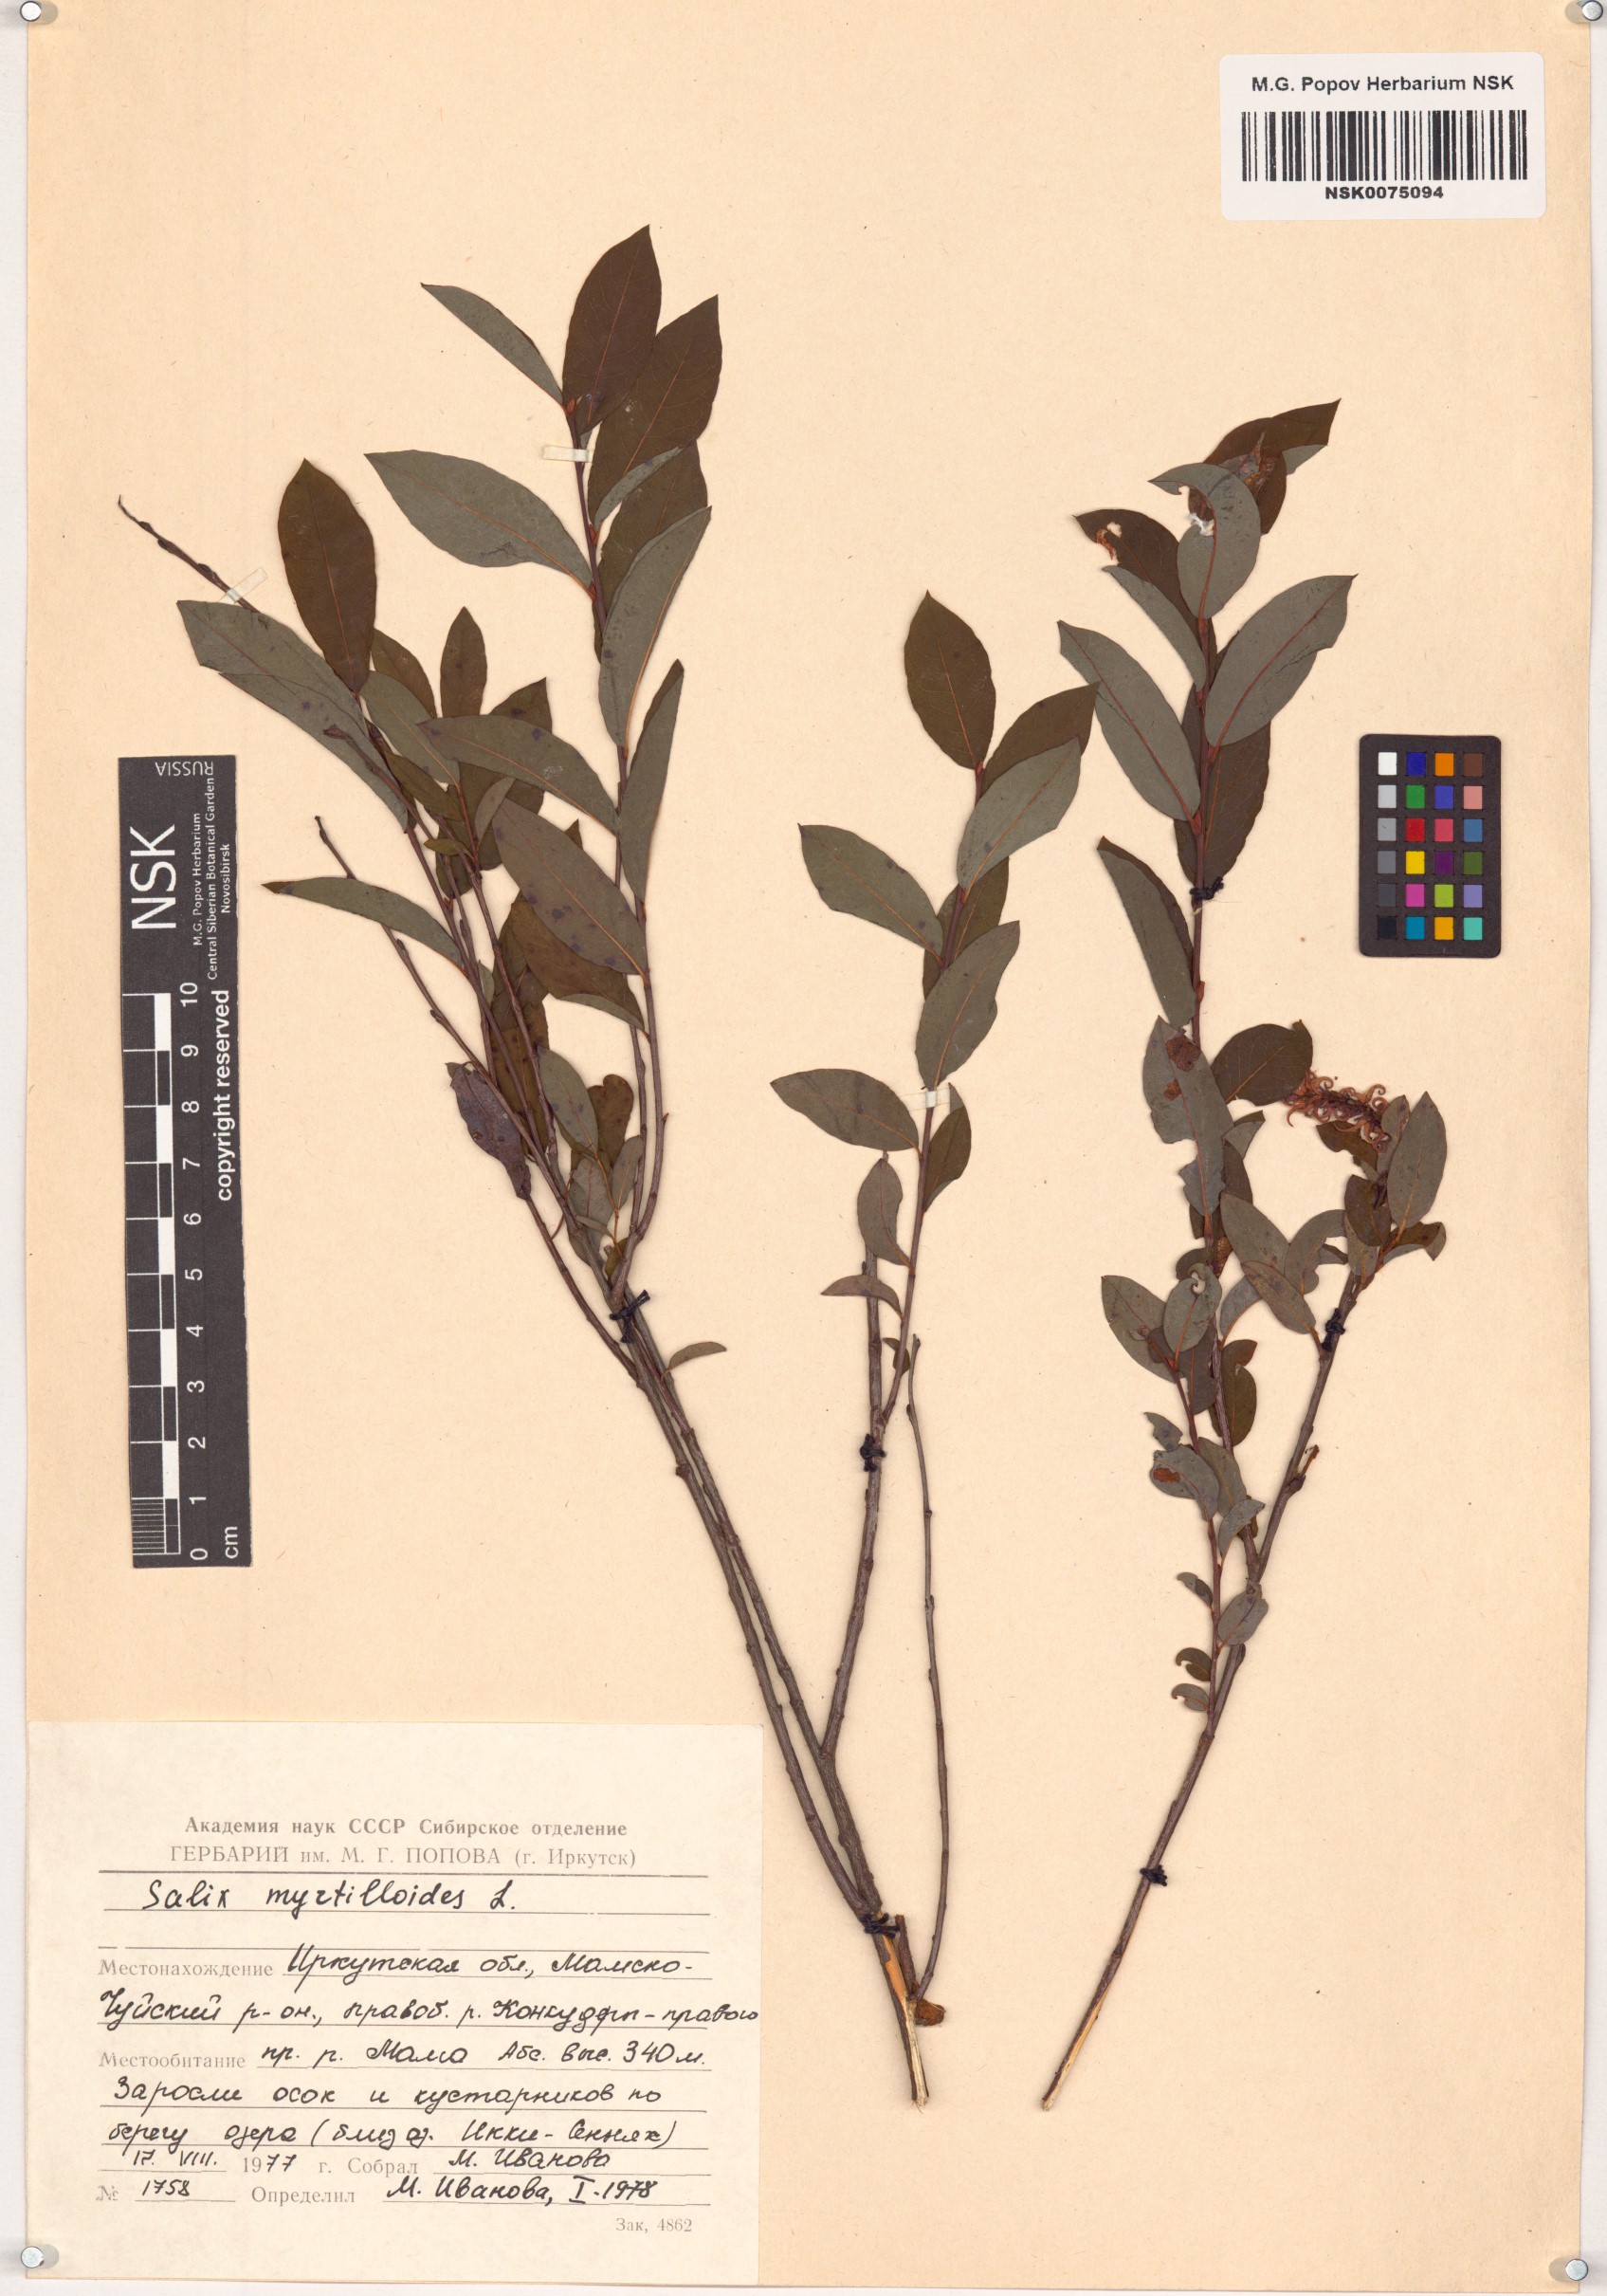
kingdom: Plantae
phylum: Tracheophyta
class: Magnoliopsida
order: Malpighiales
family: Salicaceae
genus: Salix
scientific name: Salix myrtilloides
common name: Myrtle-leaved willow
